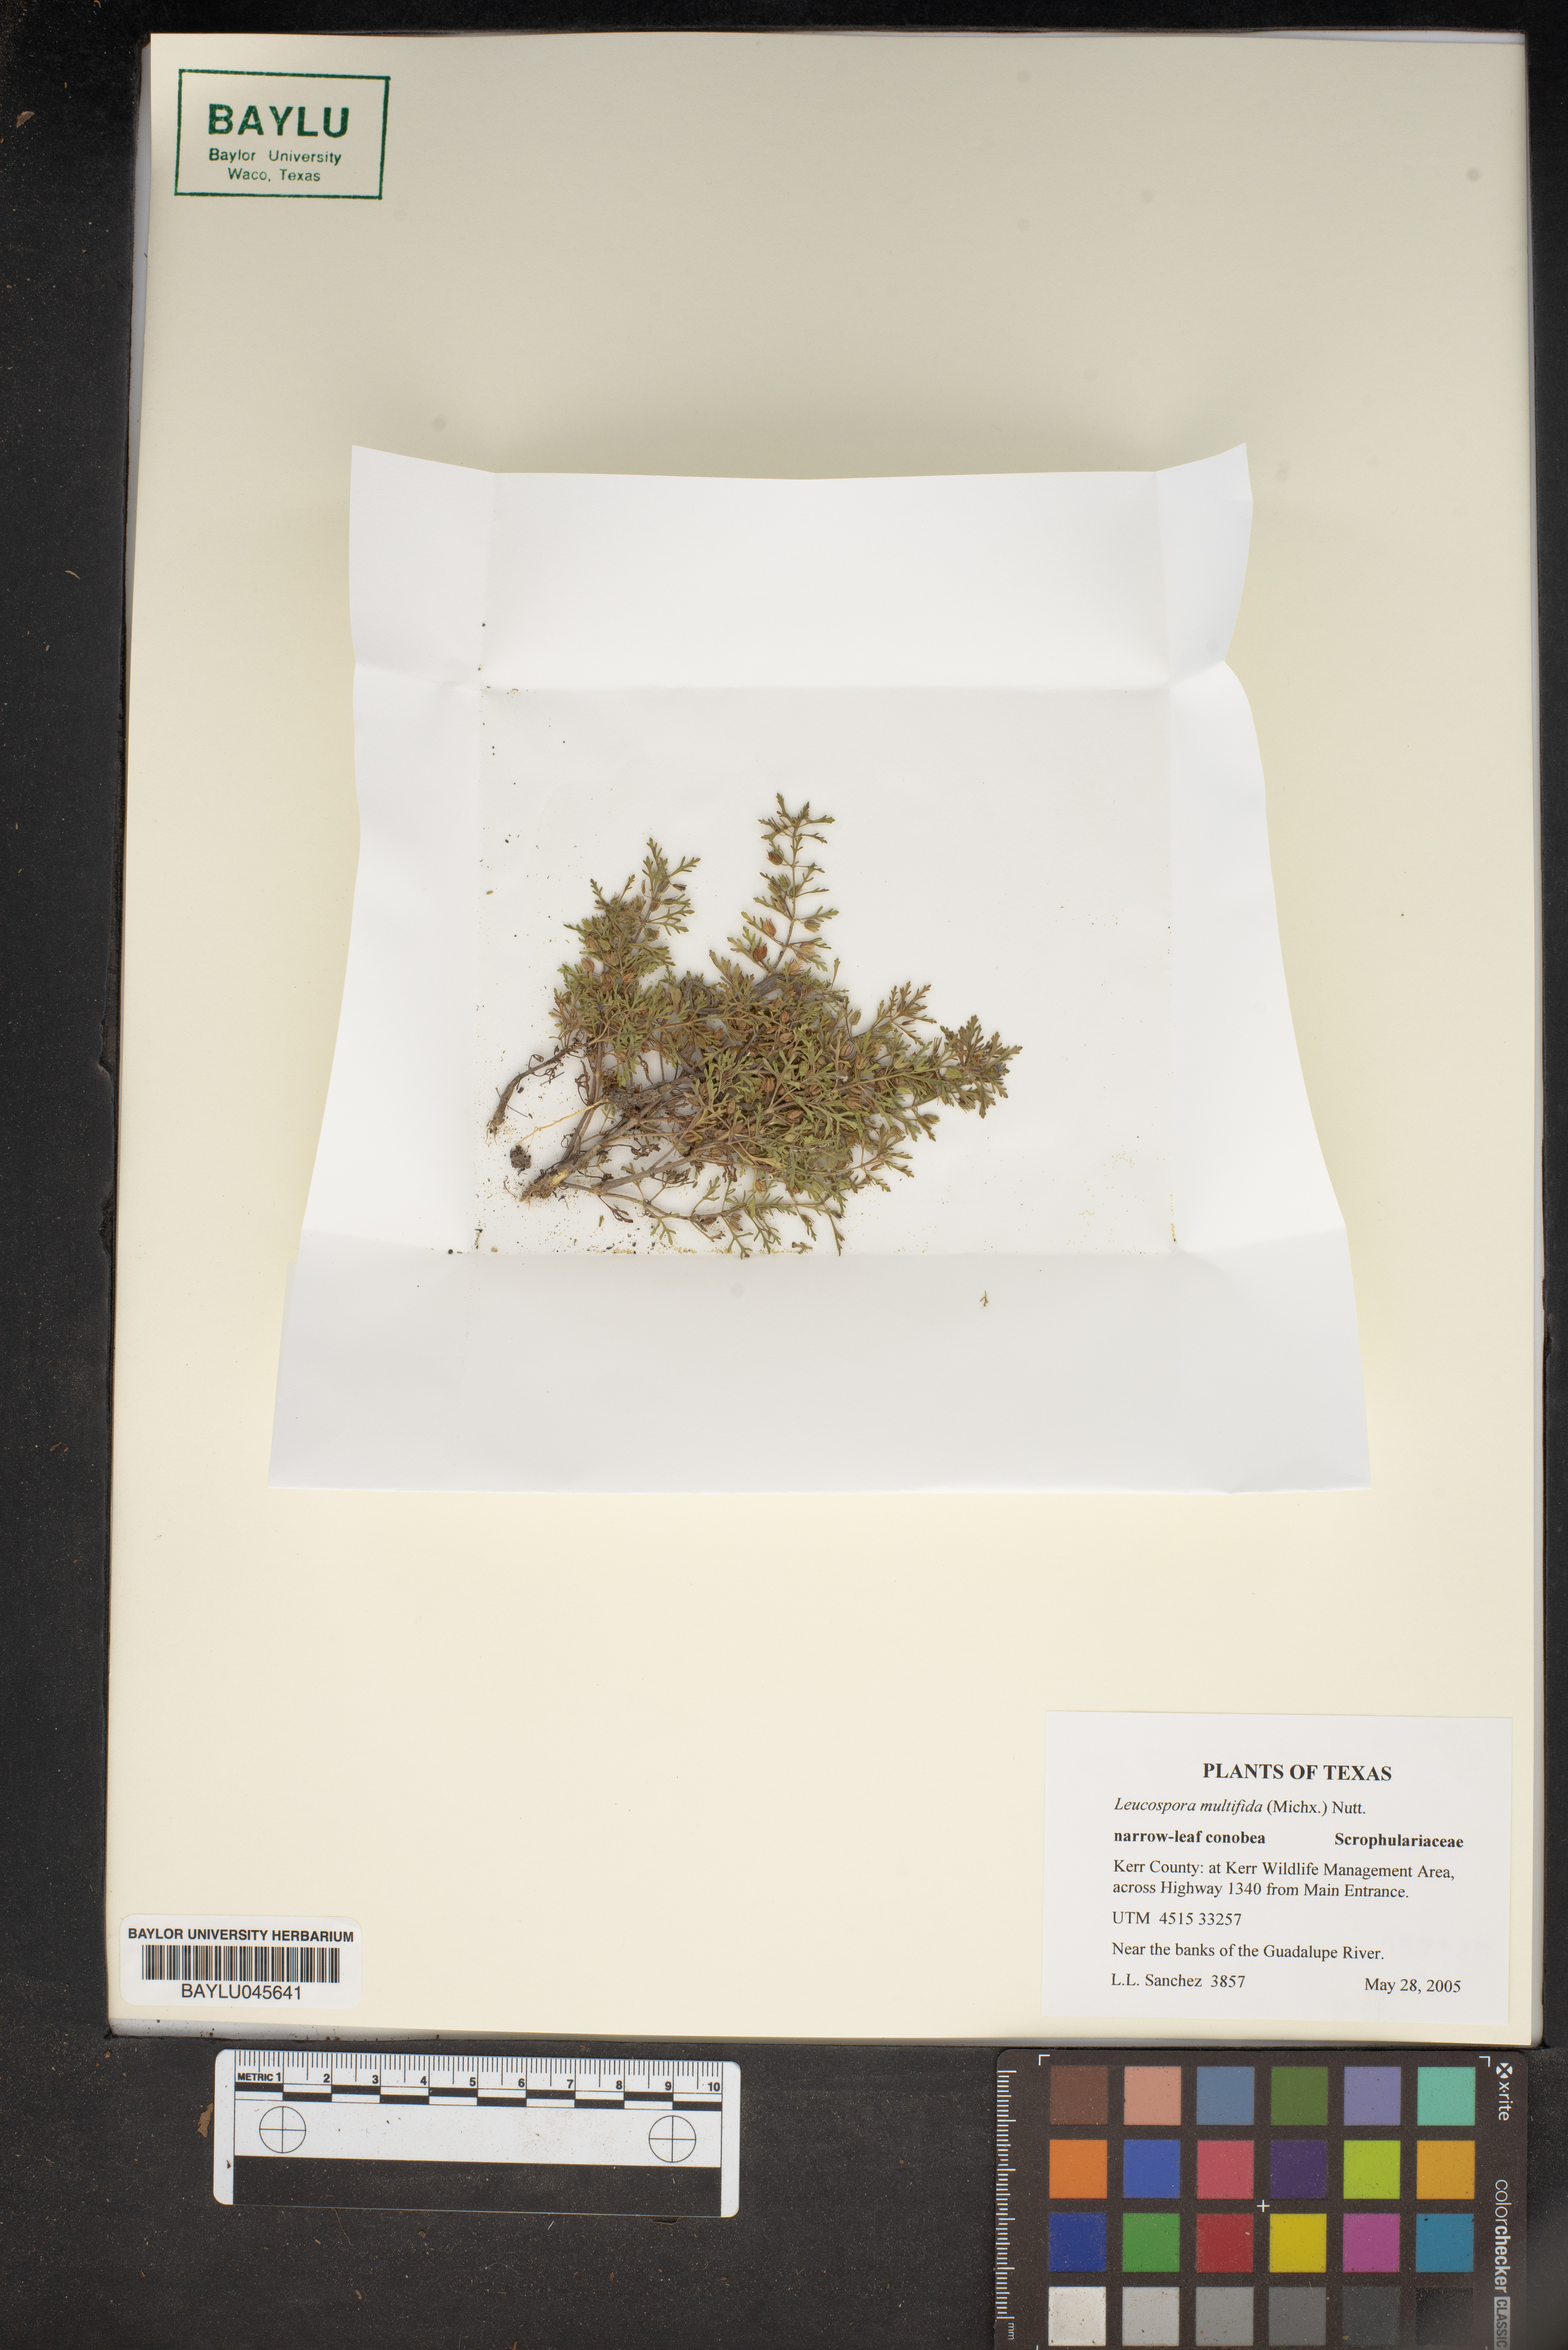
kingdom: Plantae
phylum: Tracheophyta
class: Magnoliopsida
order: Lamiales
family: Plantaginaceae
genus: Leucospora
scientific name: Leucospora multifida
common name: Narrow-leaf paleseed
